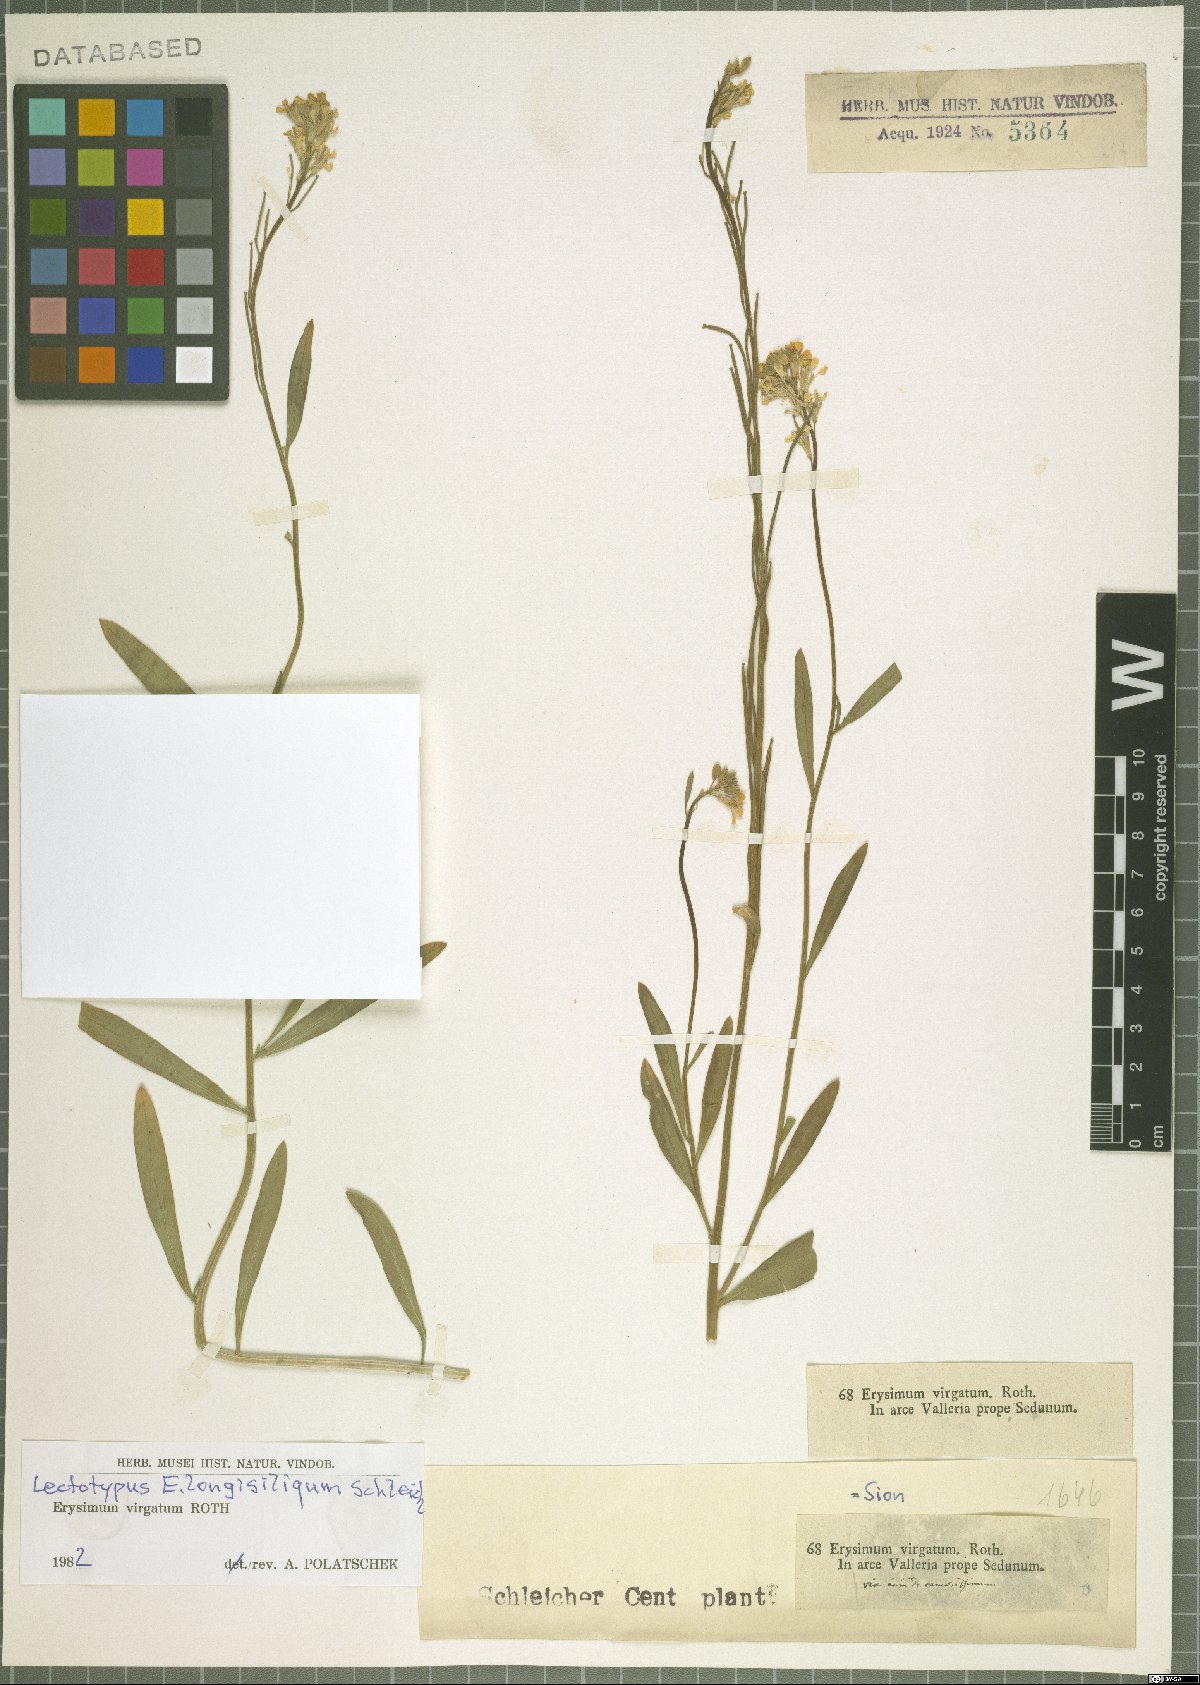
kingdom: Plantae
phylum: Tracheophyta
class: Magnoliopsida
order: Brassicales
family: Brassicaceae
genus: Erysimum
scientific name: Erysimum virgatum
